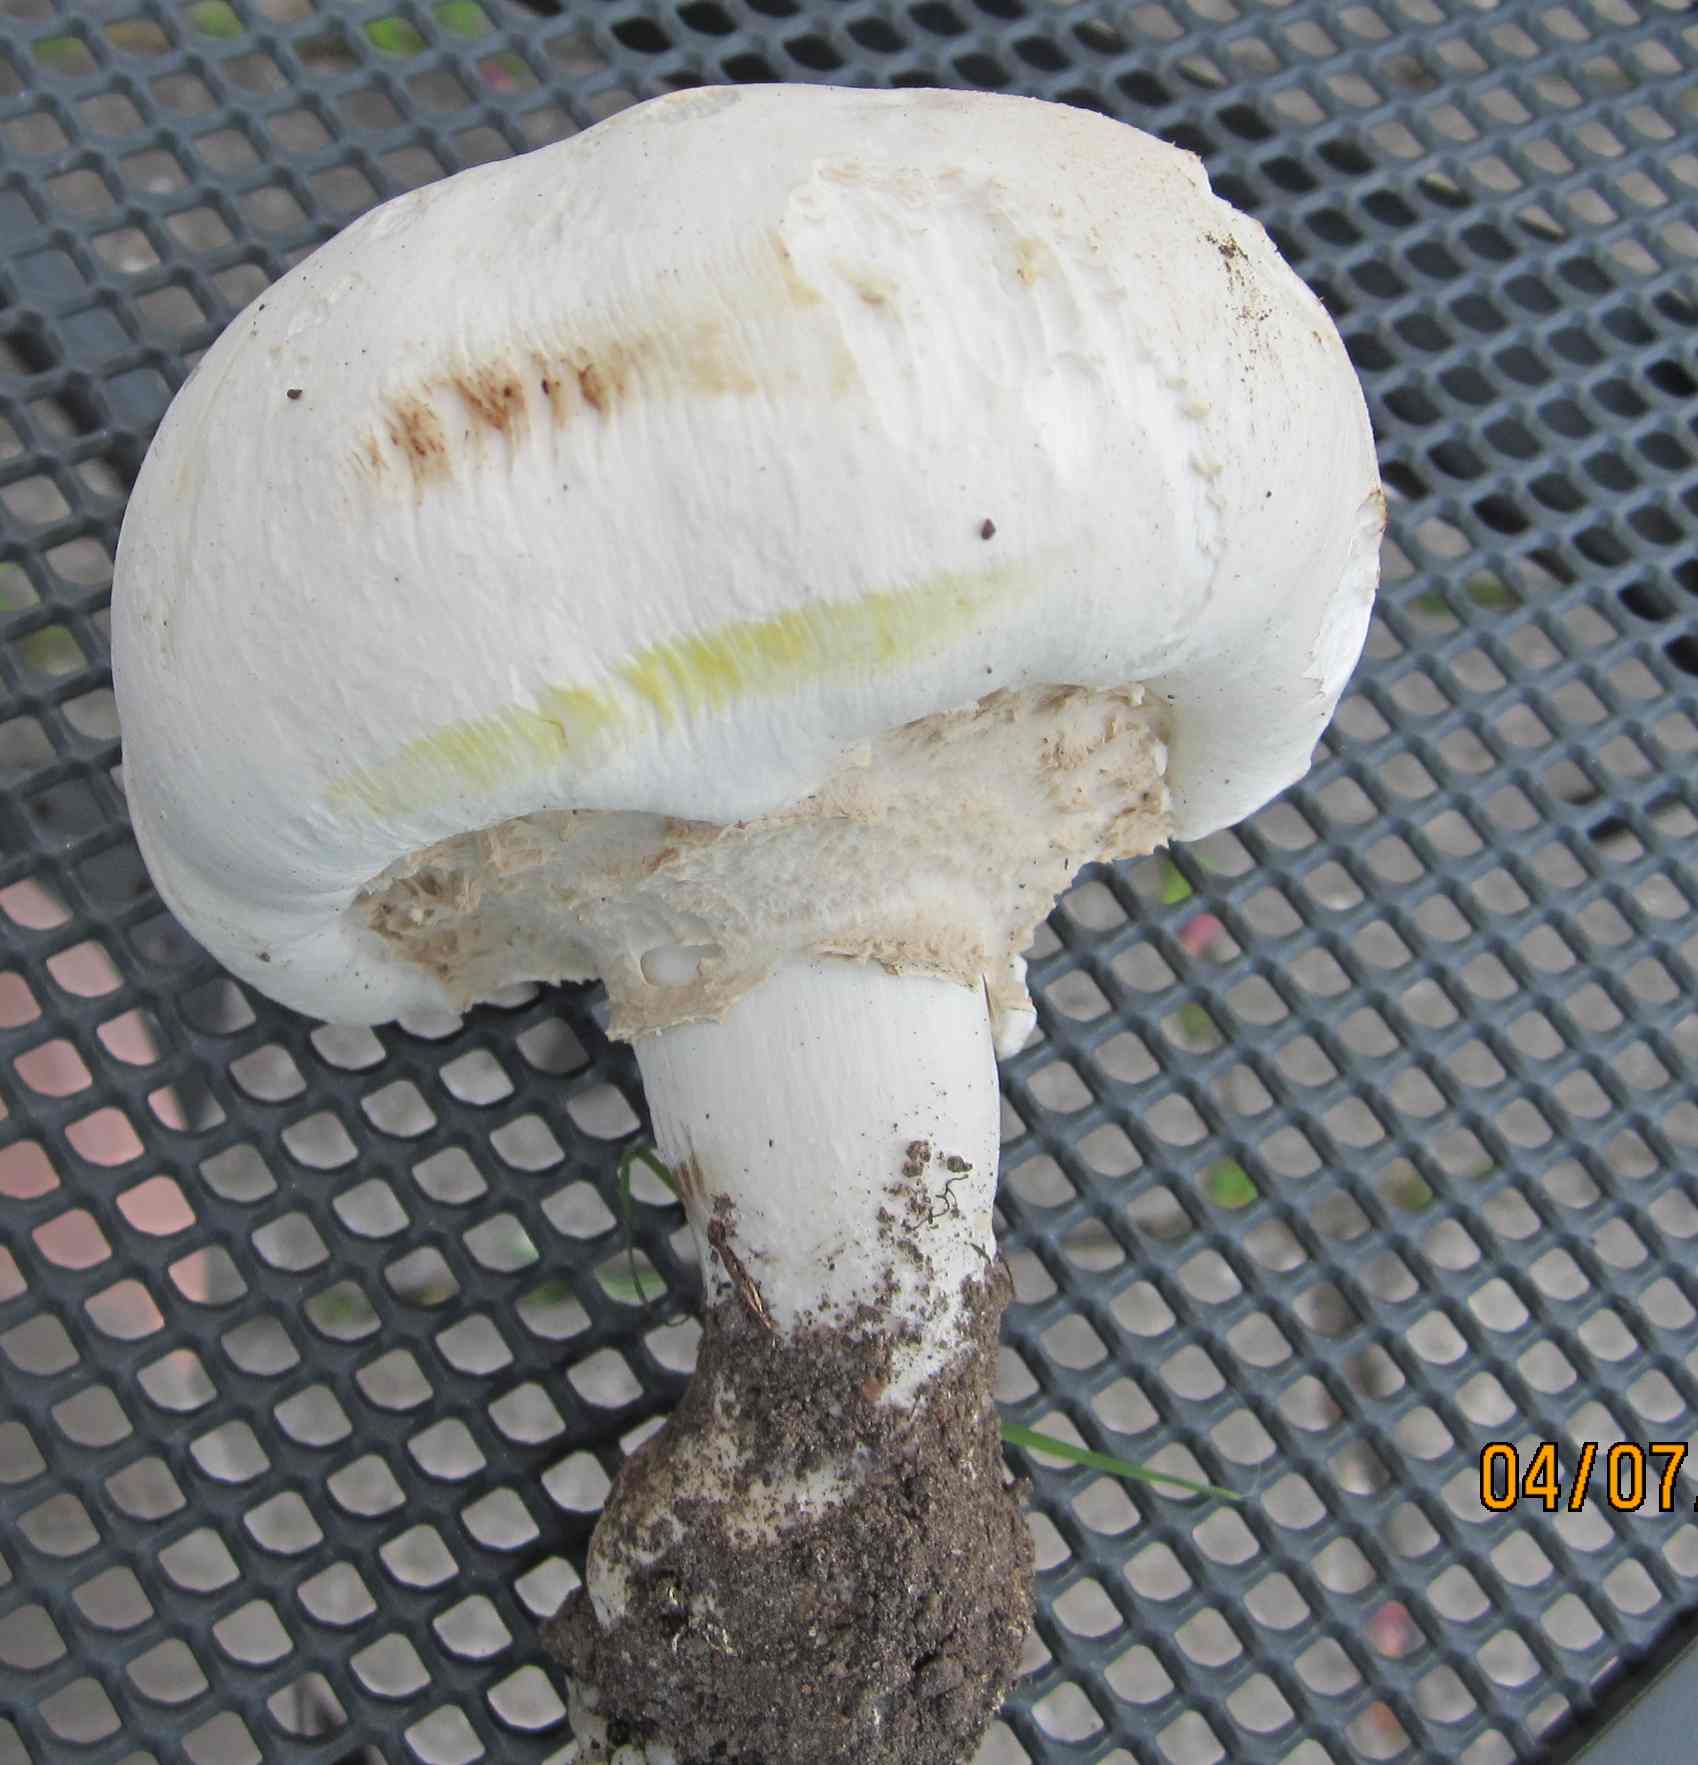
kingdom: Fungi
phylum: Basidiomycota
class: Agaricomycetes
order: Agaricales
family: Agaricaceae
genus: Agaricus
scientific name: Agaricus xanthodermus
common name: karbol-champignon
